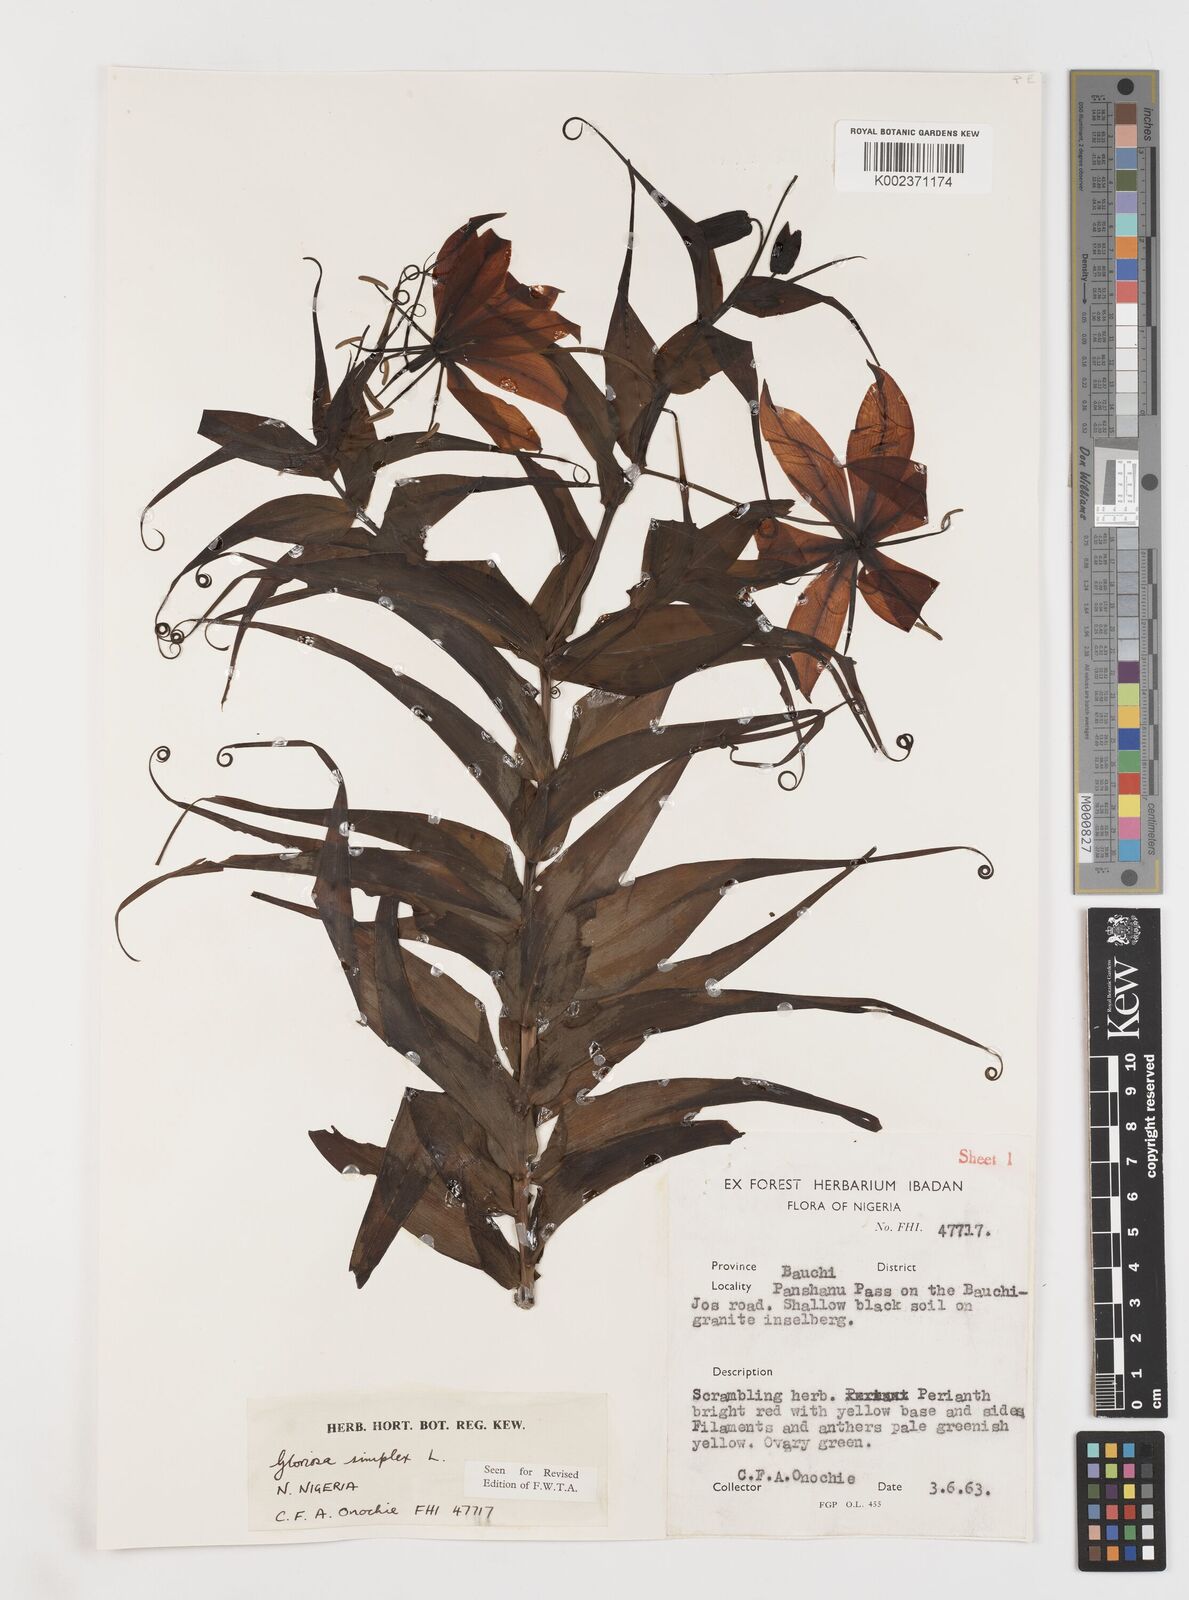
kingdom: Plantae
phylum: Tracheophyta
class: Liliopsida
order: Liliales
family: Colchicaceae
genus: Gloriosa
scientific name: Gloriosa simplex
